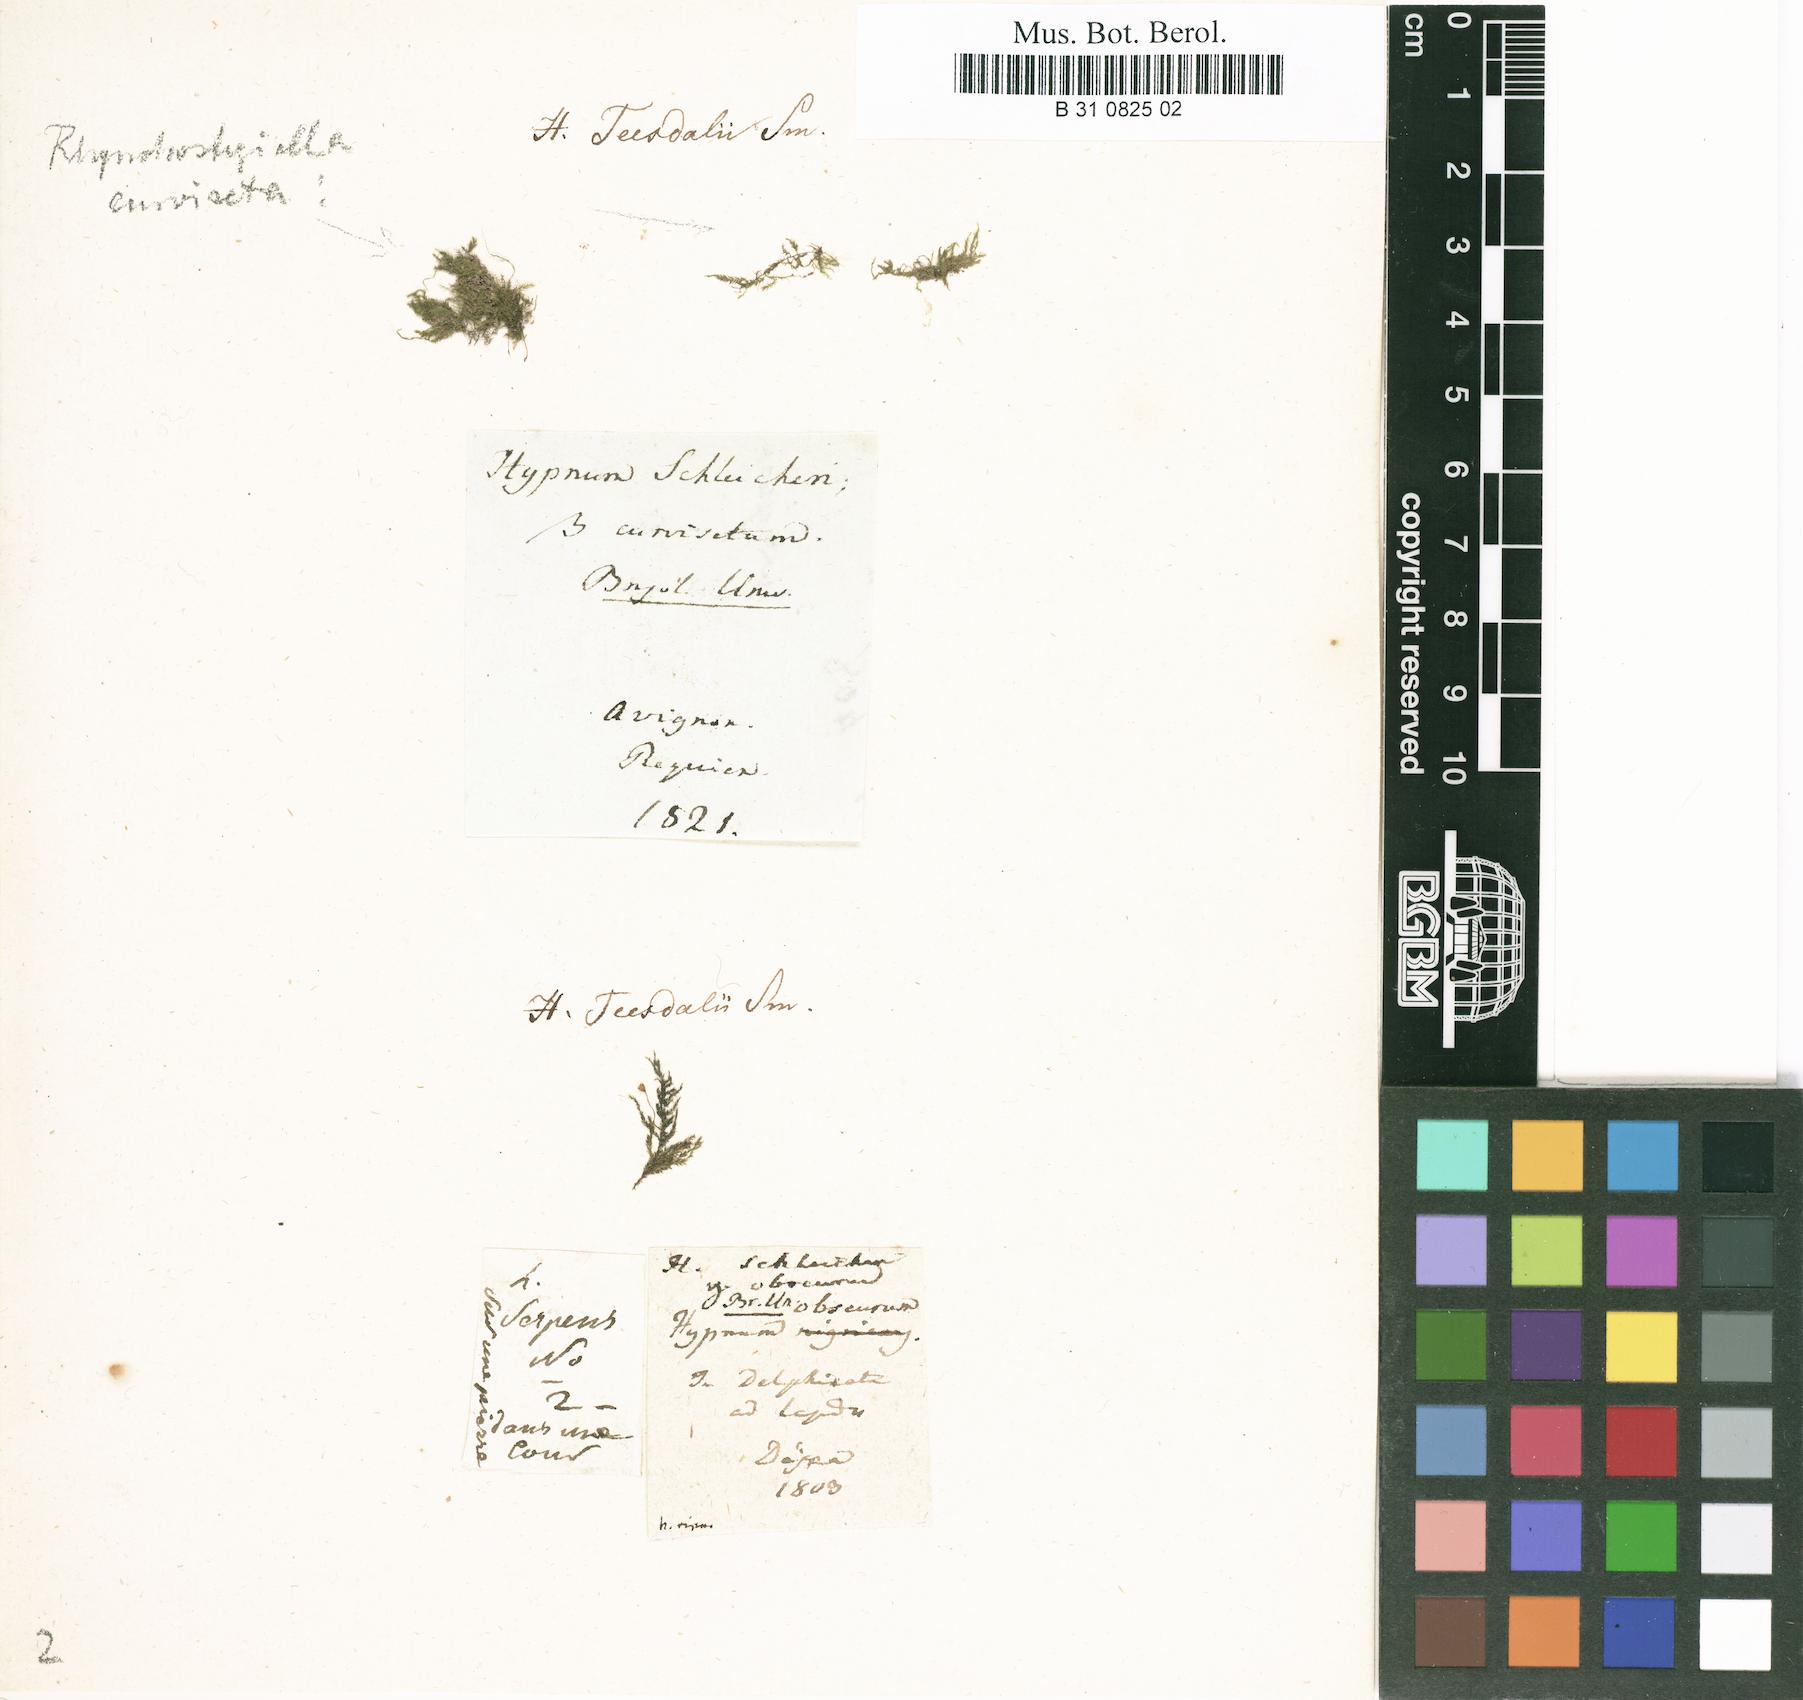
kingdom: Plantae
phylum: Bryophyta
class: Bryopsida
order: Hypnales
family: Brachytheciaceae
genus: Oxyrrhynchium
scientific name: Oxyrrhynchium schleicheri
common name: Twist-tip feather-moss
